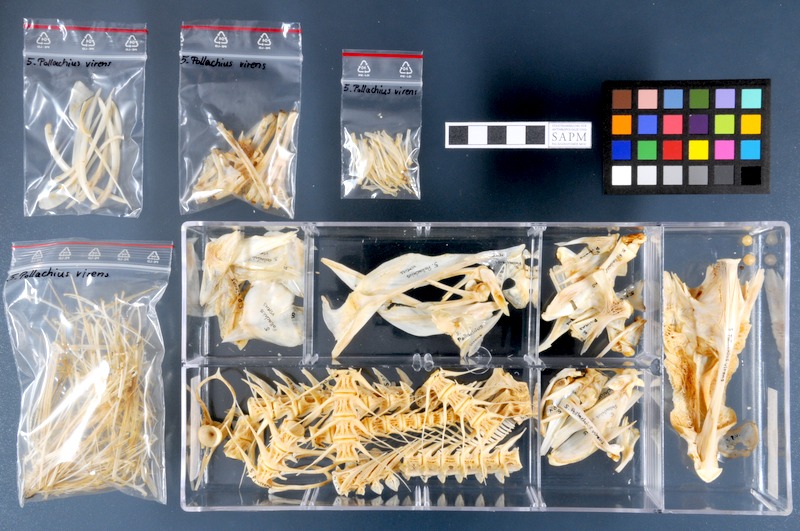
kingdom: Animalia
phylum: Chordata
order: Gadiformes
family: Gadidae
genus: Pollachius
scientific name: Pollachius virens
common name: Saithe
